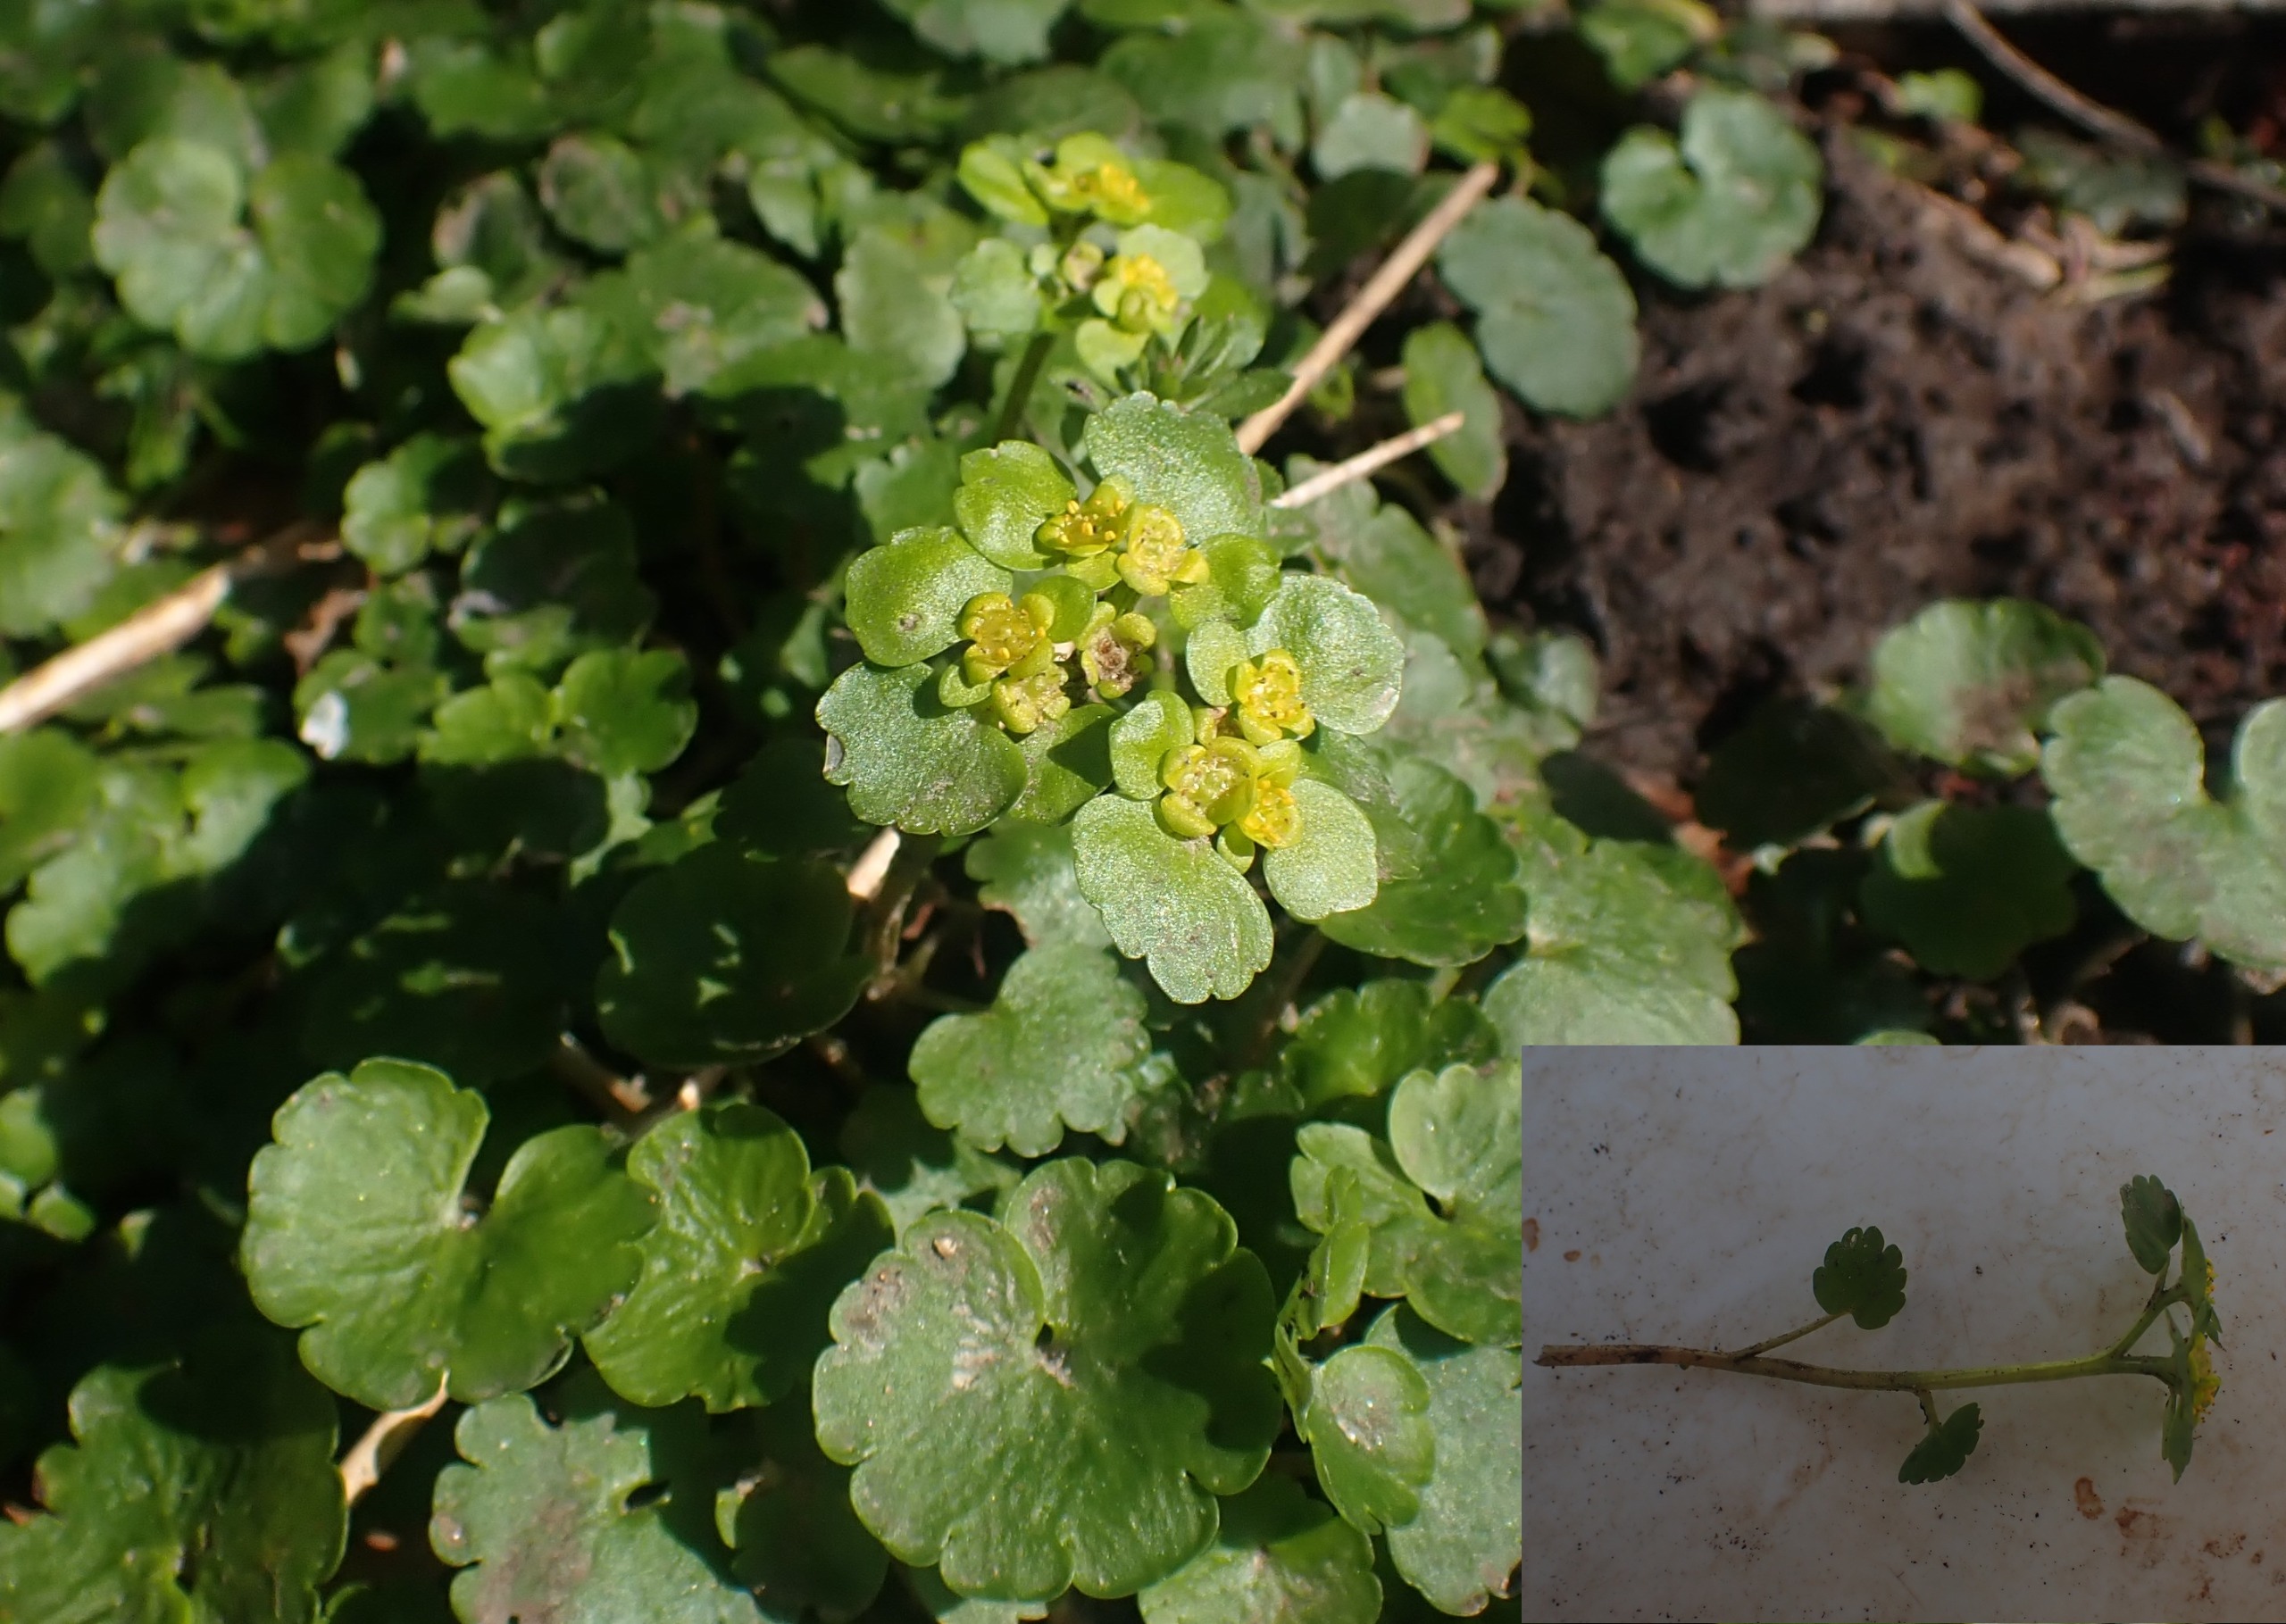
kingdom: Plantae
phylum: Tracheophyta
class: Magnoliopsida
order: Saxifragales
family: Saxifragaceae
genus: Chrysosplenium
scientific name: Chrysosplenium alternifolium
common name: Almindelig milturt
